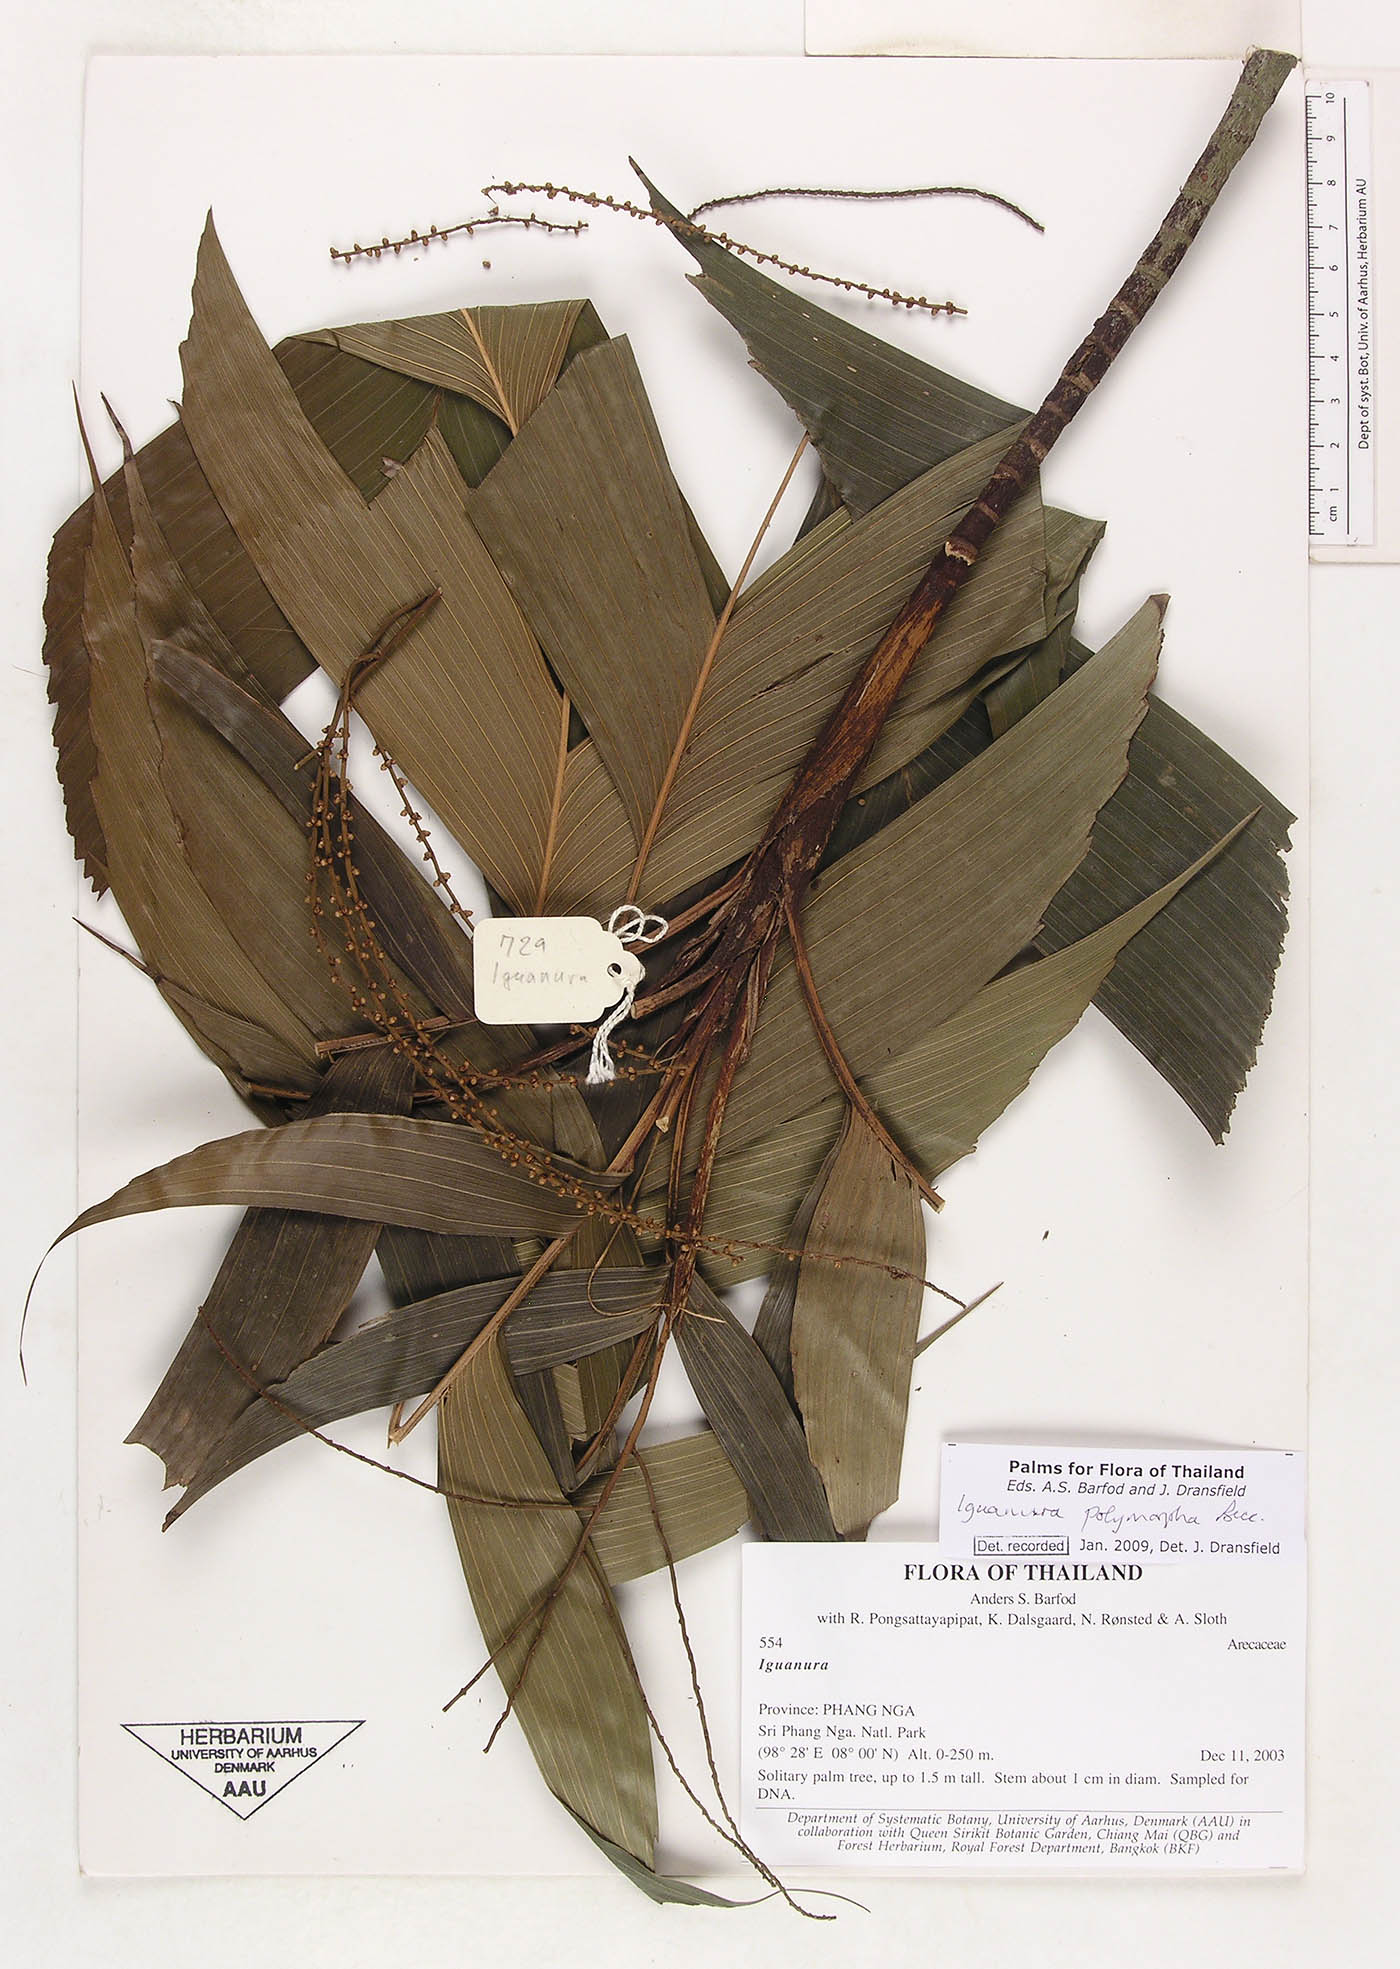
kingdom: Plantae
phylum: Tracheophyta
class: Liliopsida
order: Arecales
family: Arecaceae
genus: Iguanura
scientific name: Iguanura polymorpha
